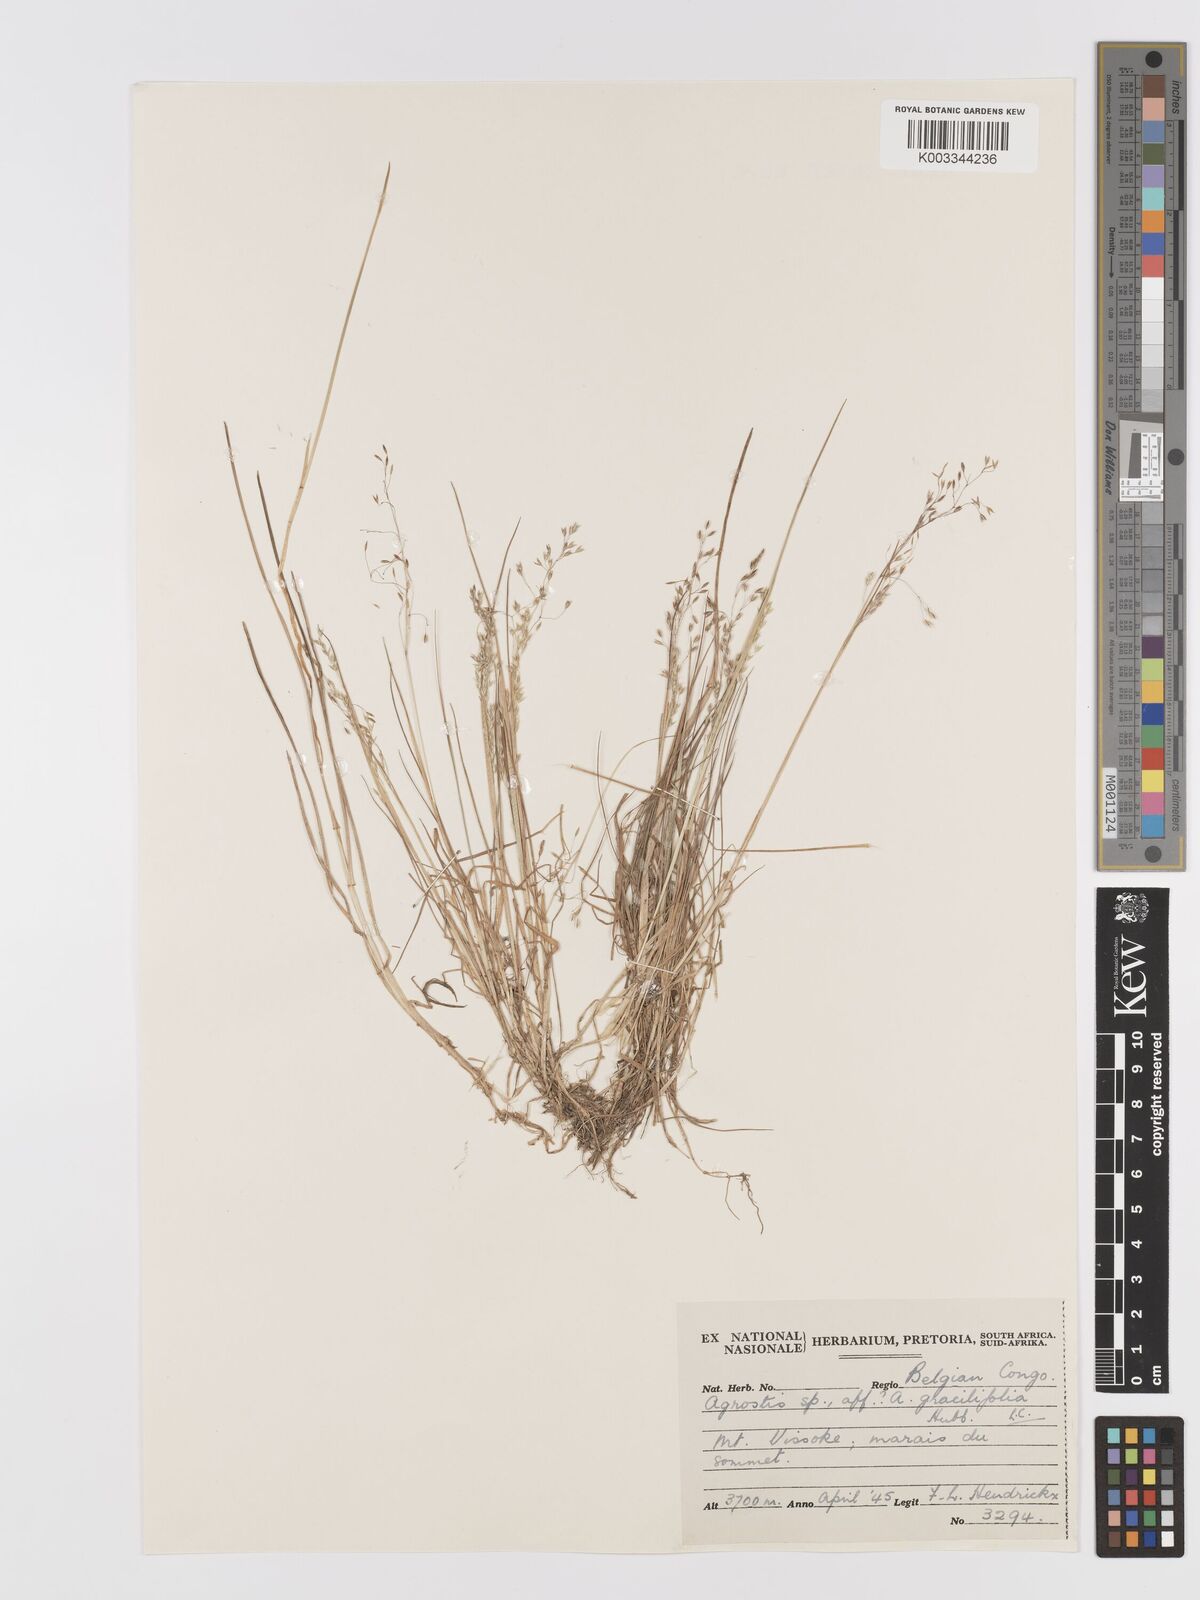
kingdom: Plantae
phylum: Tracheophyta
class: Liliopsida
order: Poales
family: Poaceae
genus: Agrostis
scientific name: Agrostis taylorii
